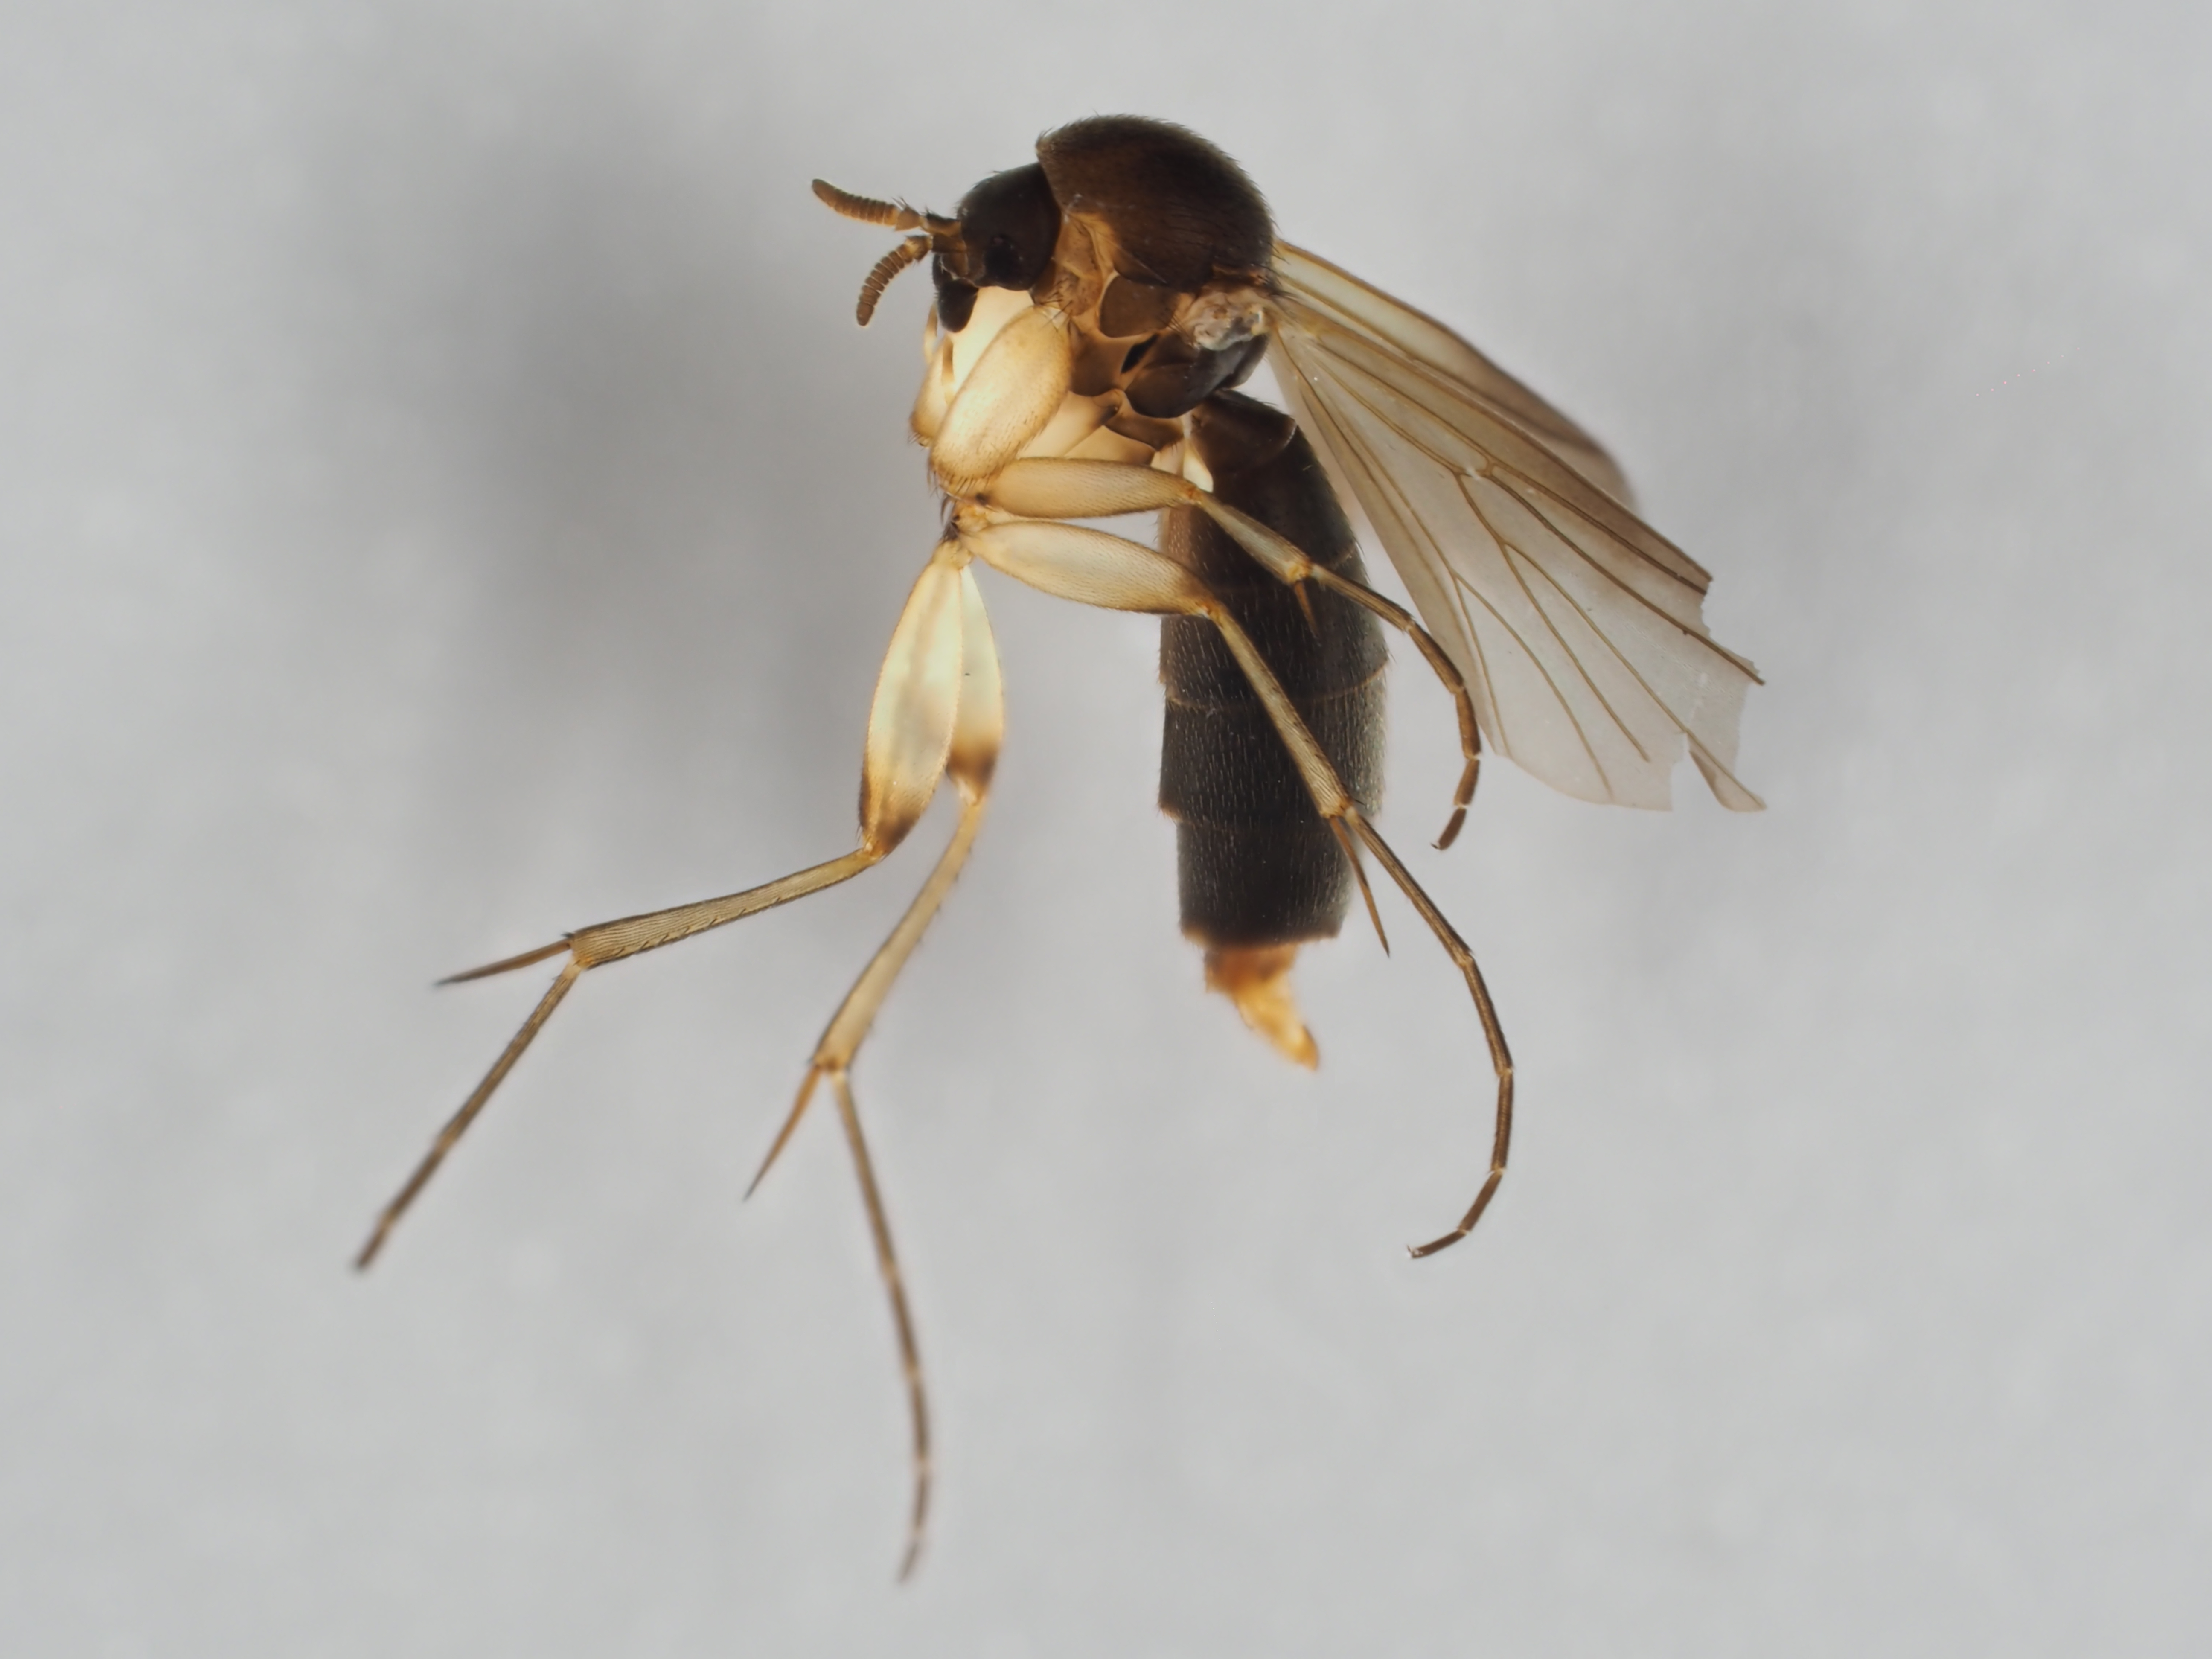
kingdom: Animalia
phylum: Arthropoda
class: Insecta
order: Diptera
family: Mycetophilidae
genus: Cordyla
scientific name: Cordyla brevicornis
